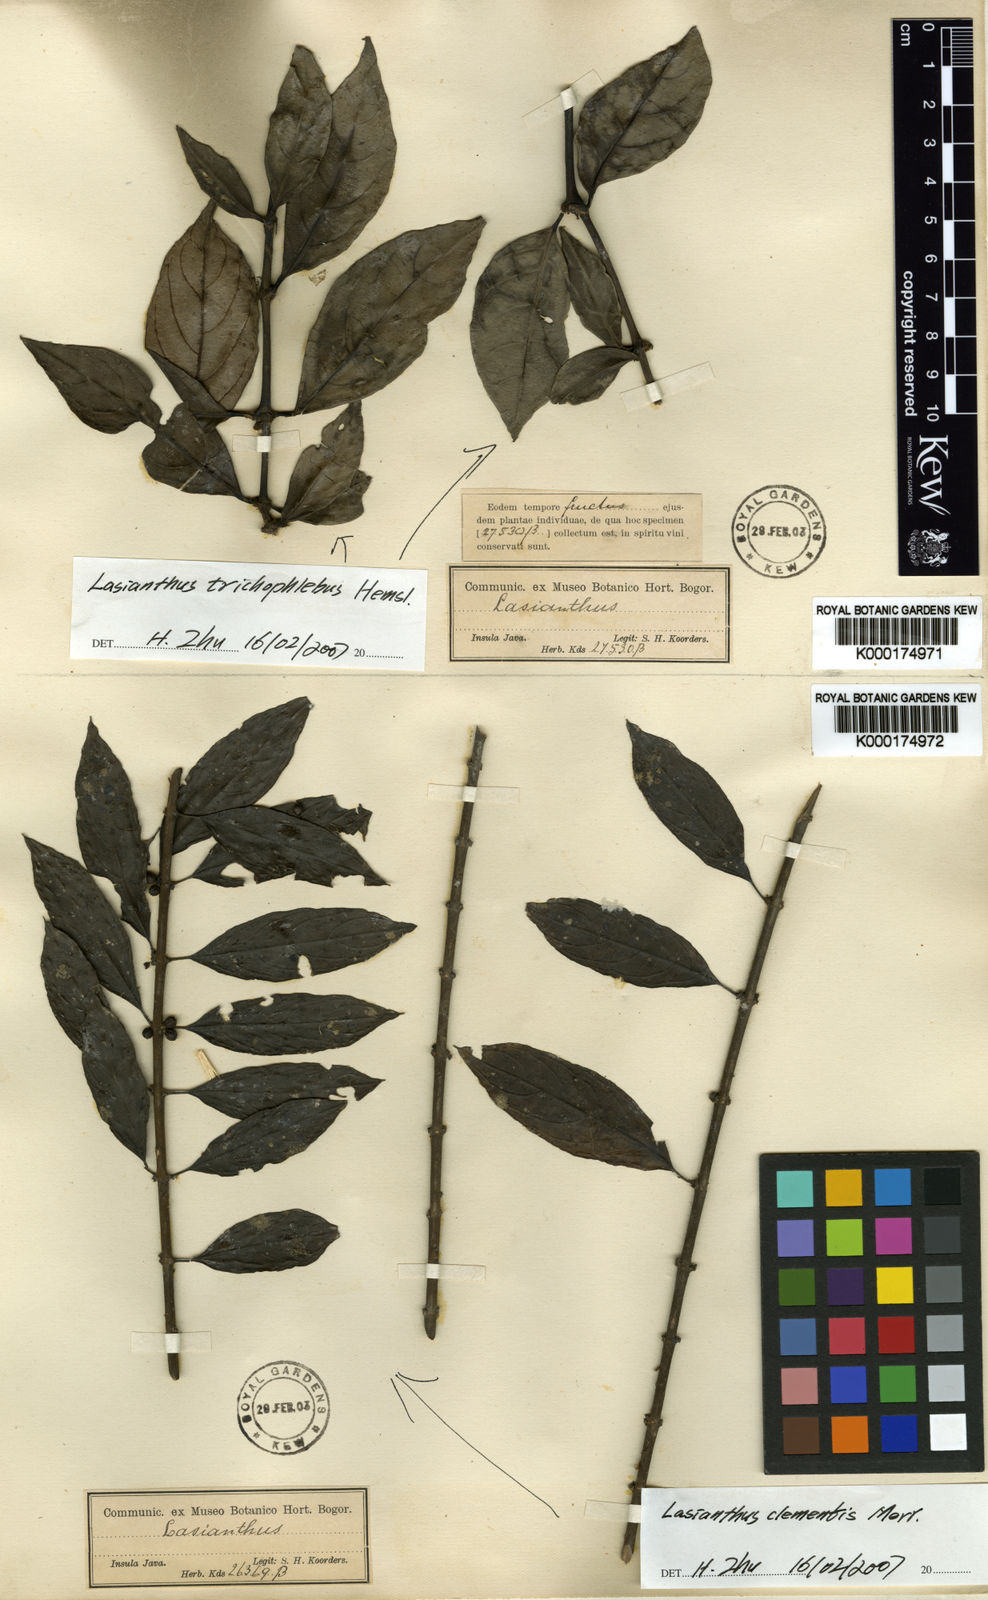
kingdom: Plantae
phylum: Tracheophyta
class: Magnoliopsida
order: Gentianales
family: Rubiaceae
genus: Lasianthus
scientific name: Lasianthus clementis
